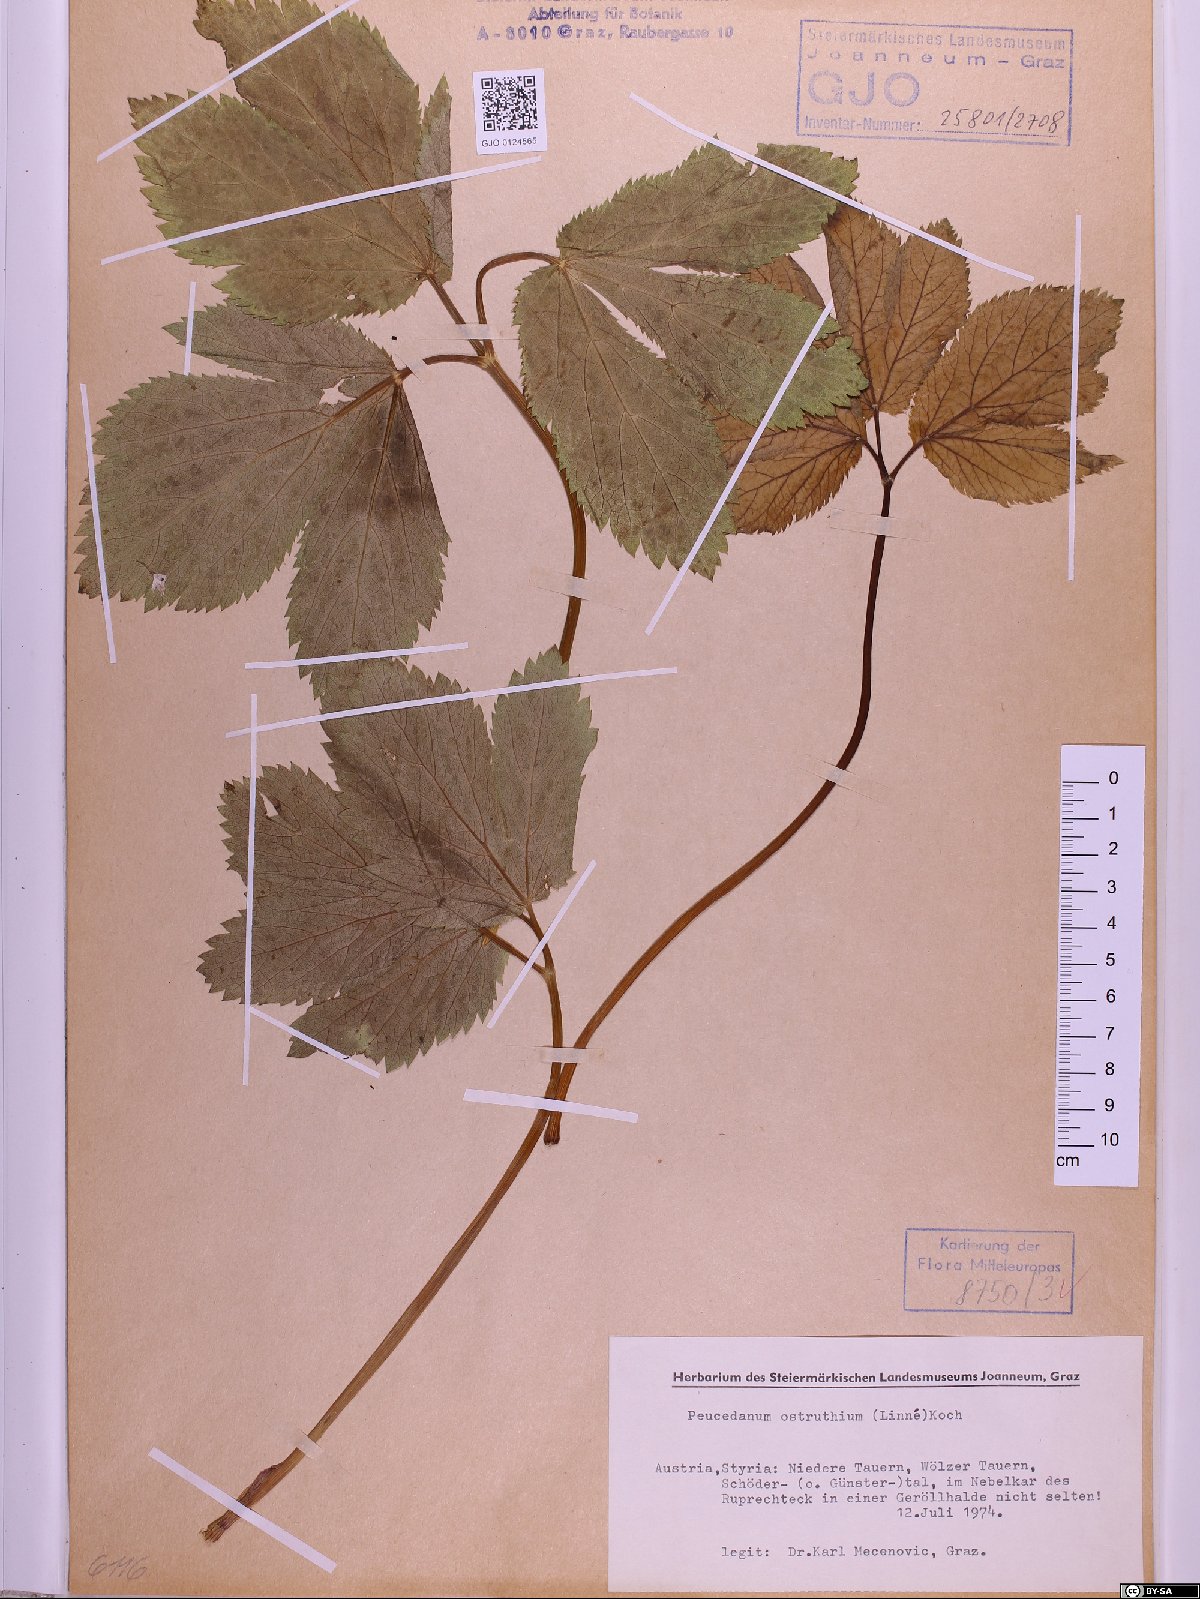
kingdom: Plantae
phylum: Tracheophyta
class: Magnoliopsida
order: Apiales
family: Apiaceae
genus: Imperatoria
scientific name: Imperatoria ostruthium
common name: Masterwort
